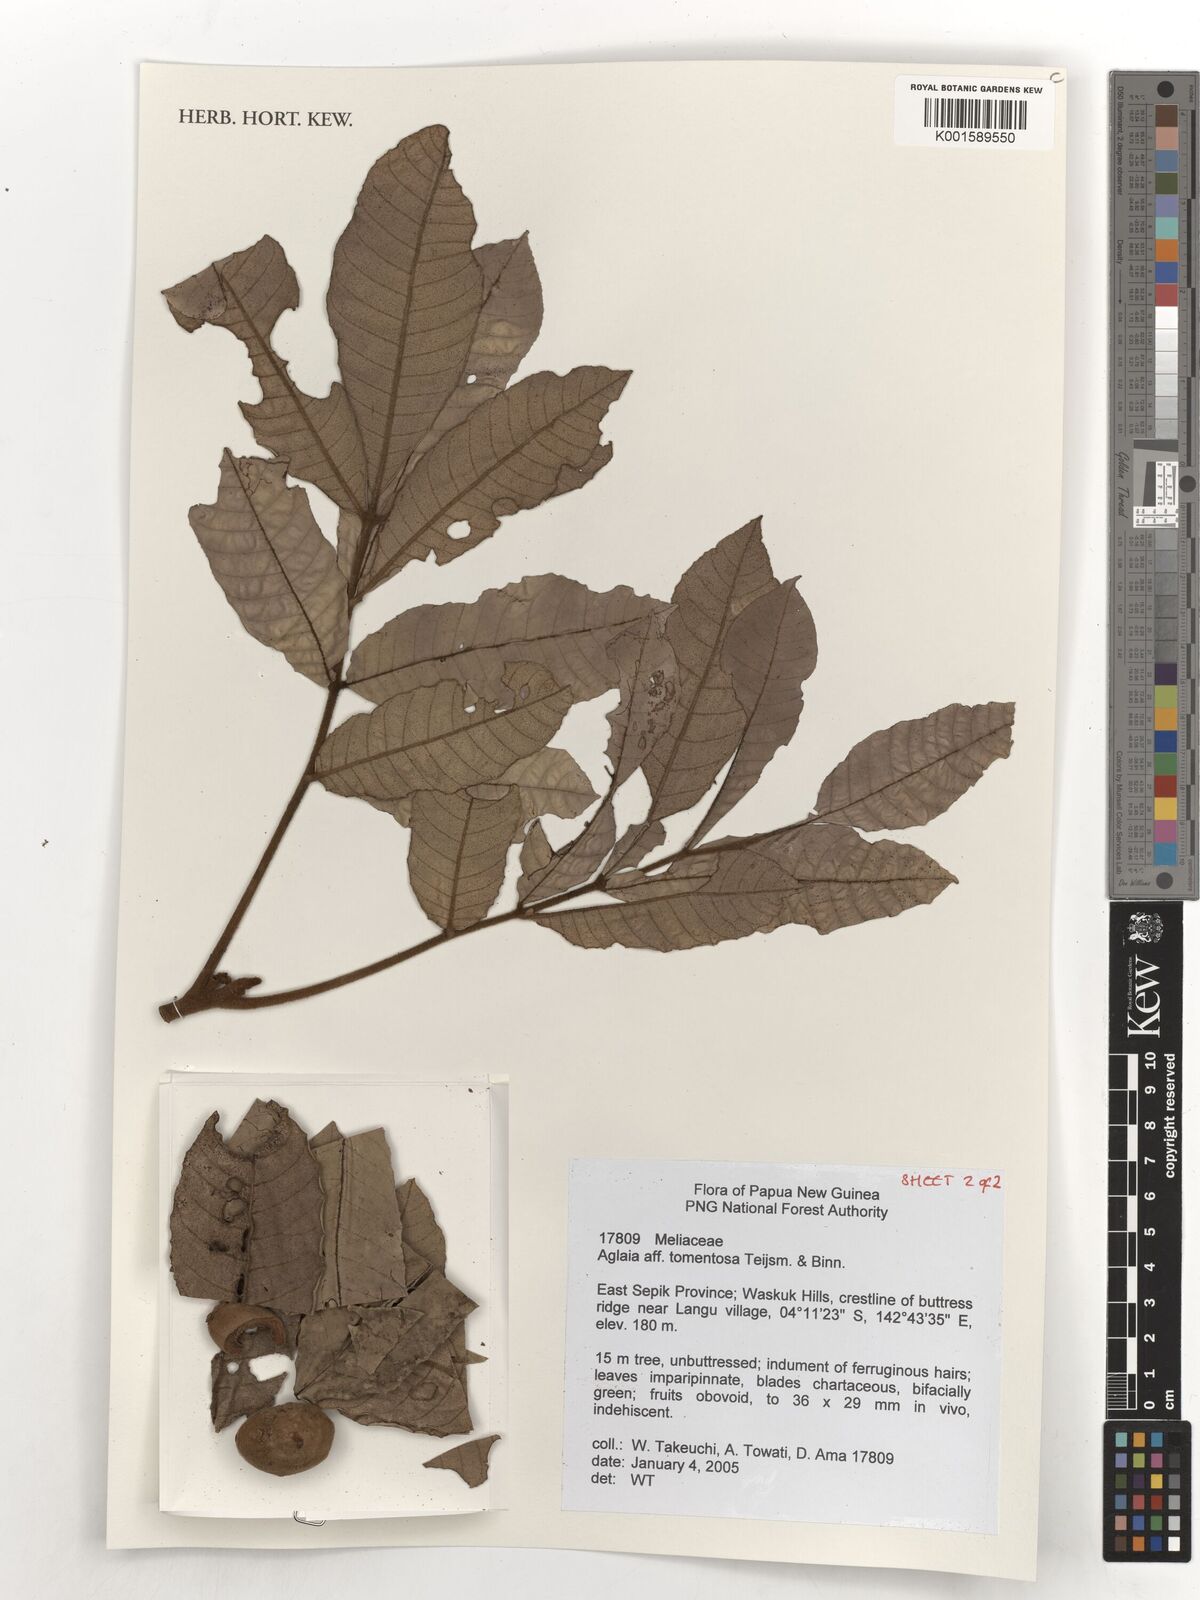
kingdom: Plantae
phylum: Tracheophyta
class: Magnoliopsida
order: Sapindales
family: Meliaceae
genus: Aglaia
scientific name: Aglaia tomentosa
